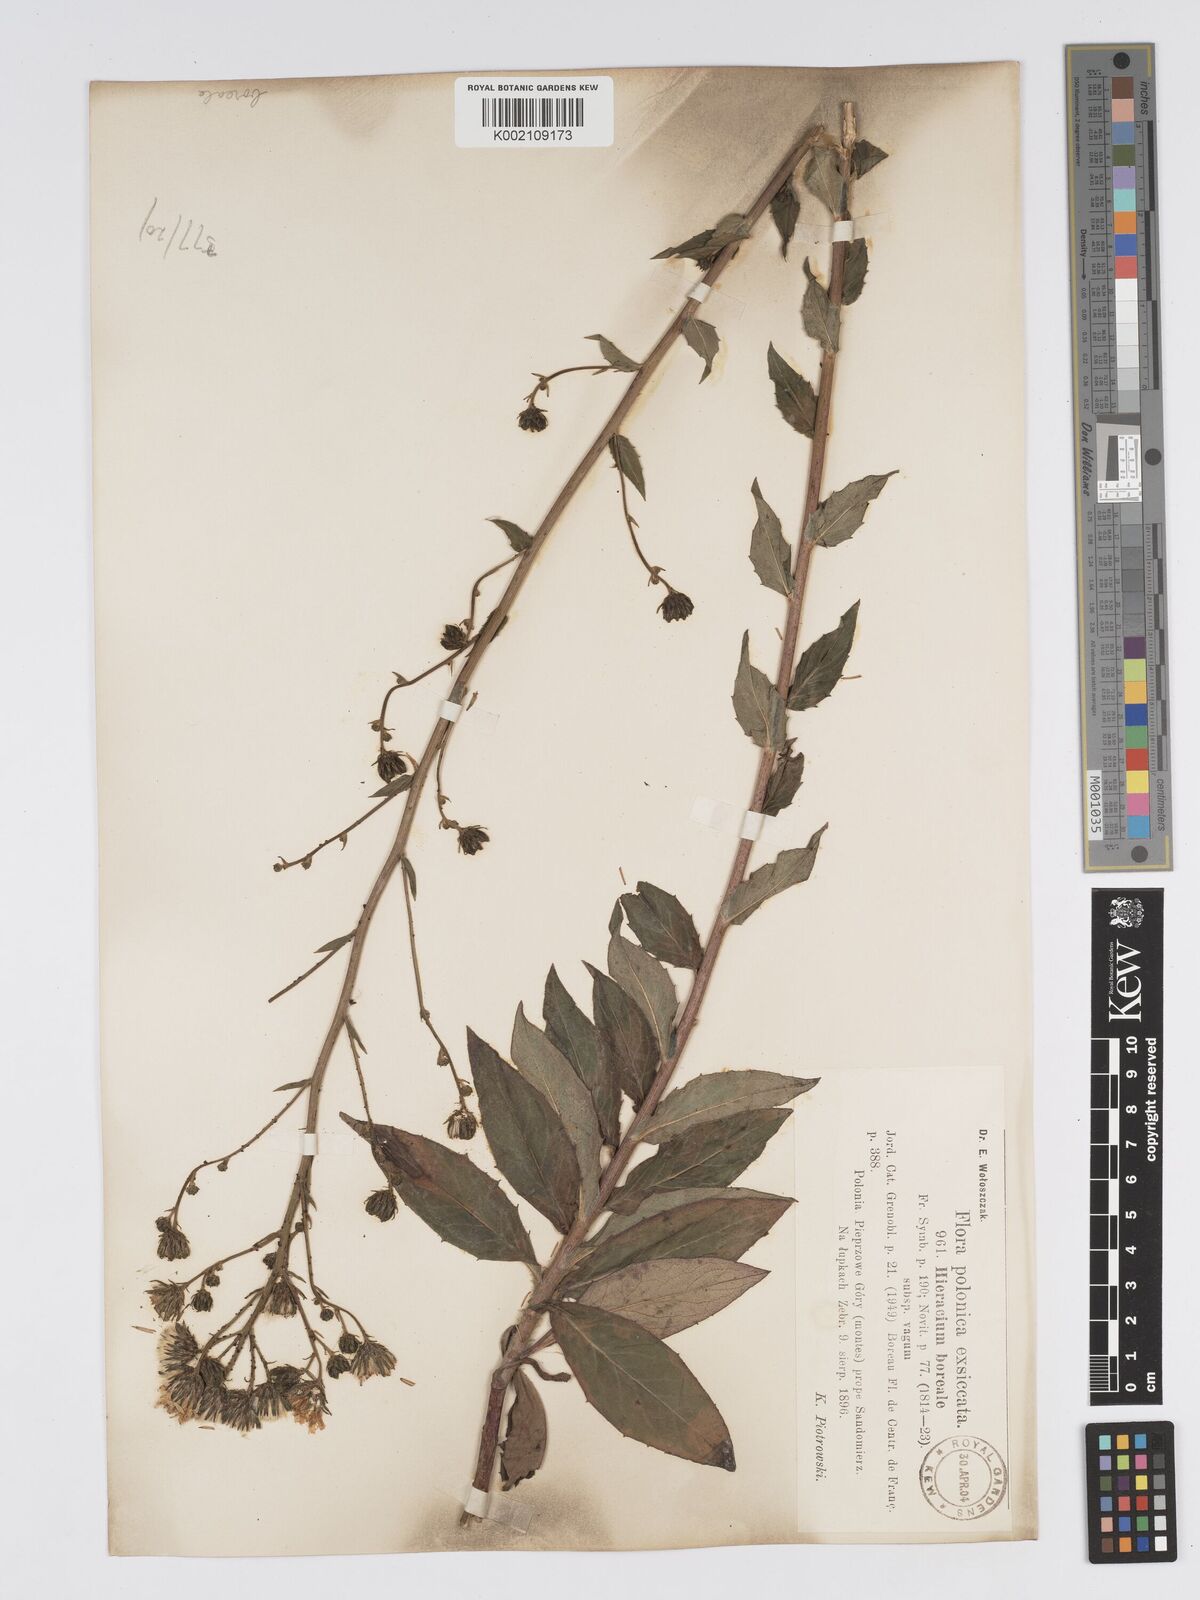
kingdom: Plantae
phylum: Tracheophyta
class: Magnoliopsida
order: Asterales
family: Asteraceae
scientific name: Asteraceae
